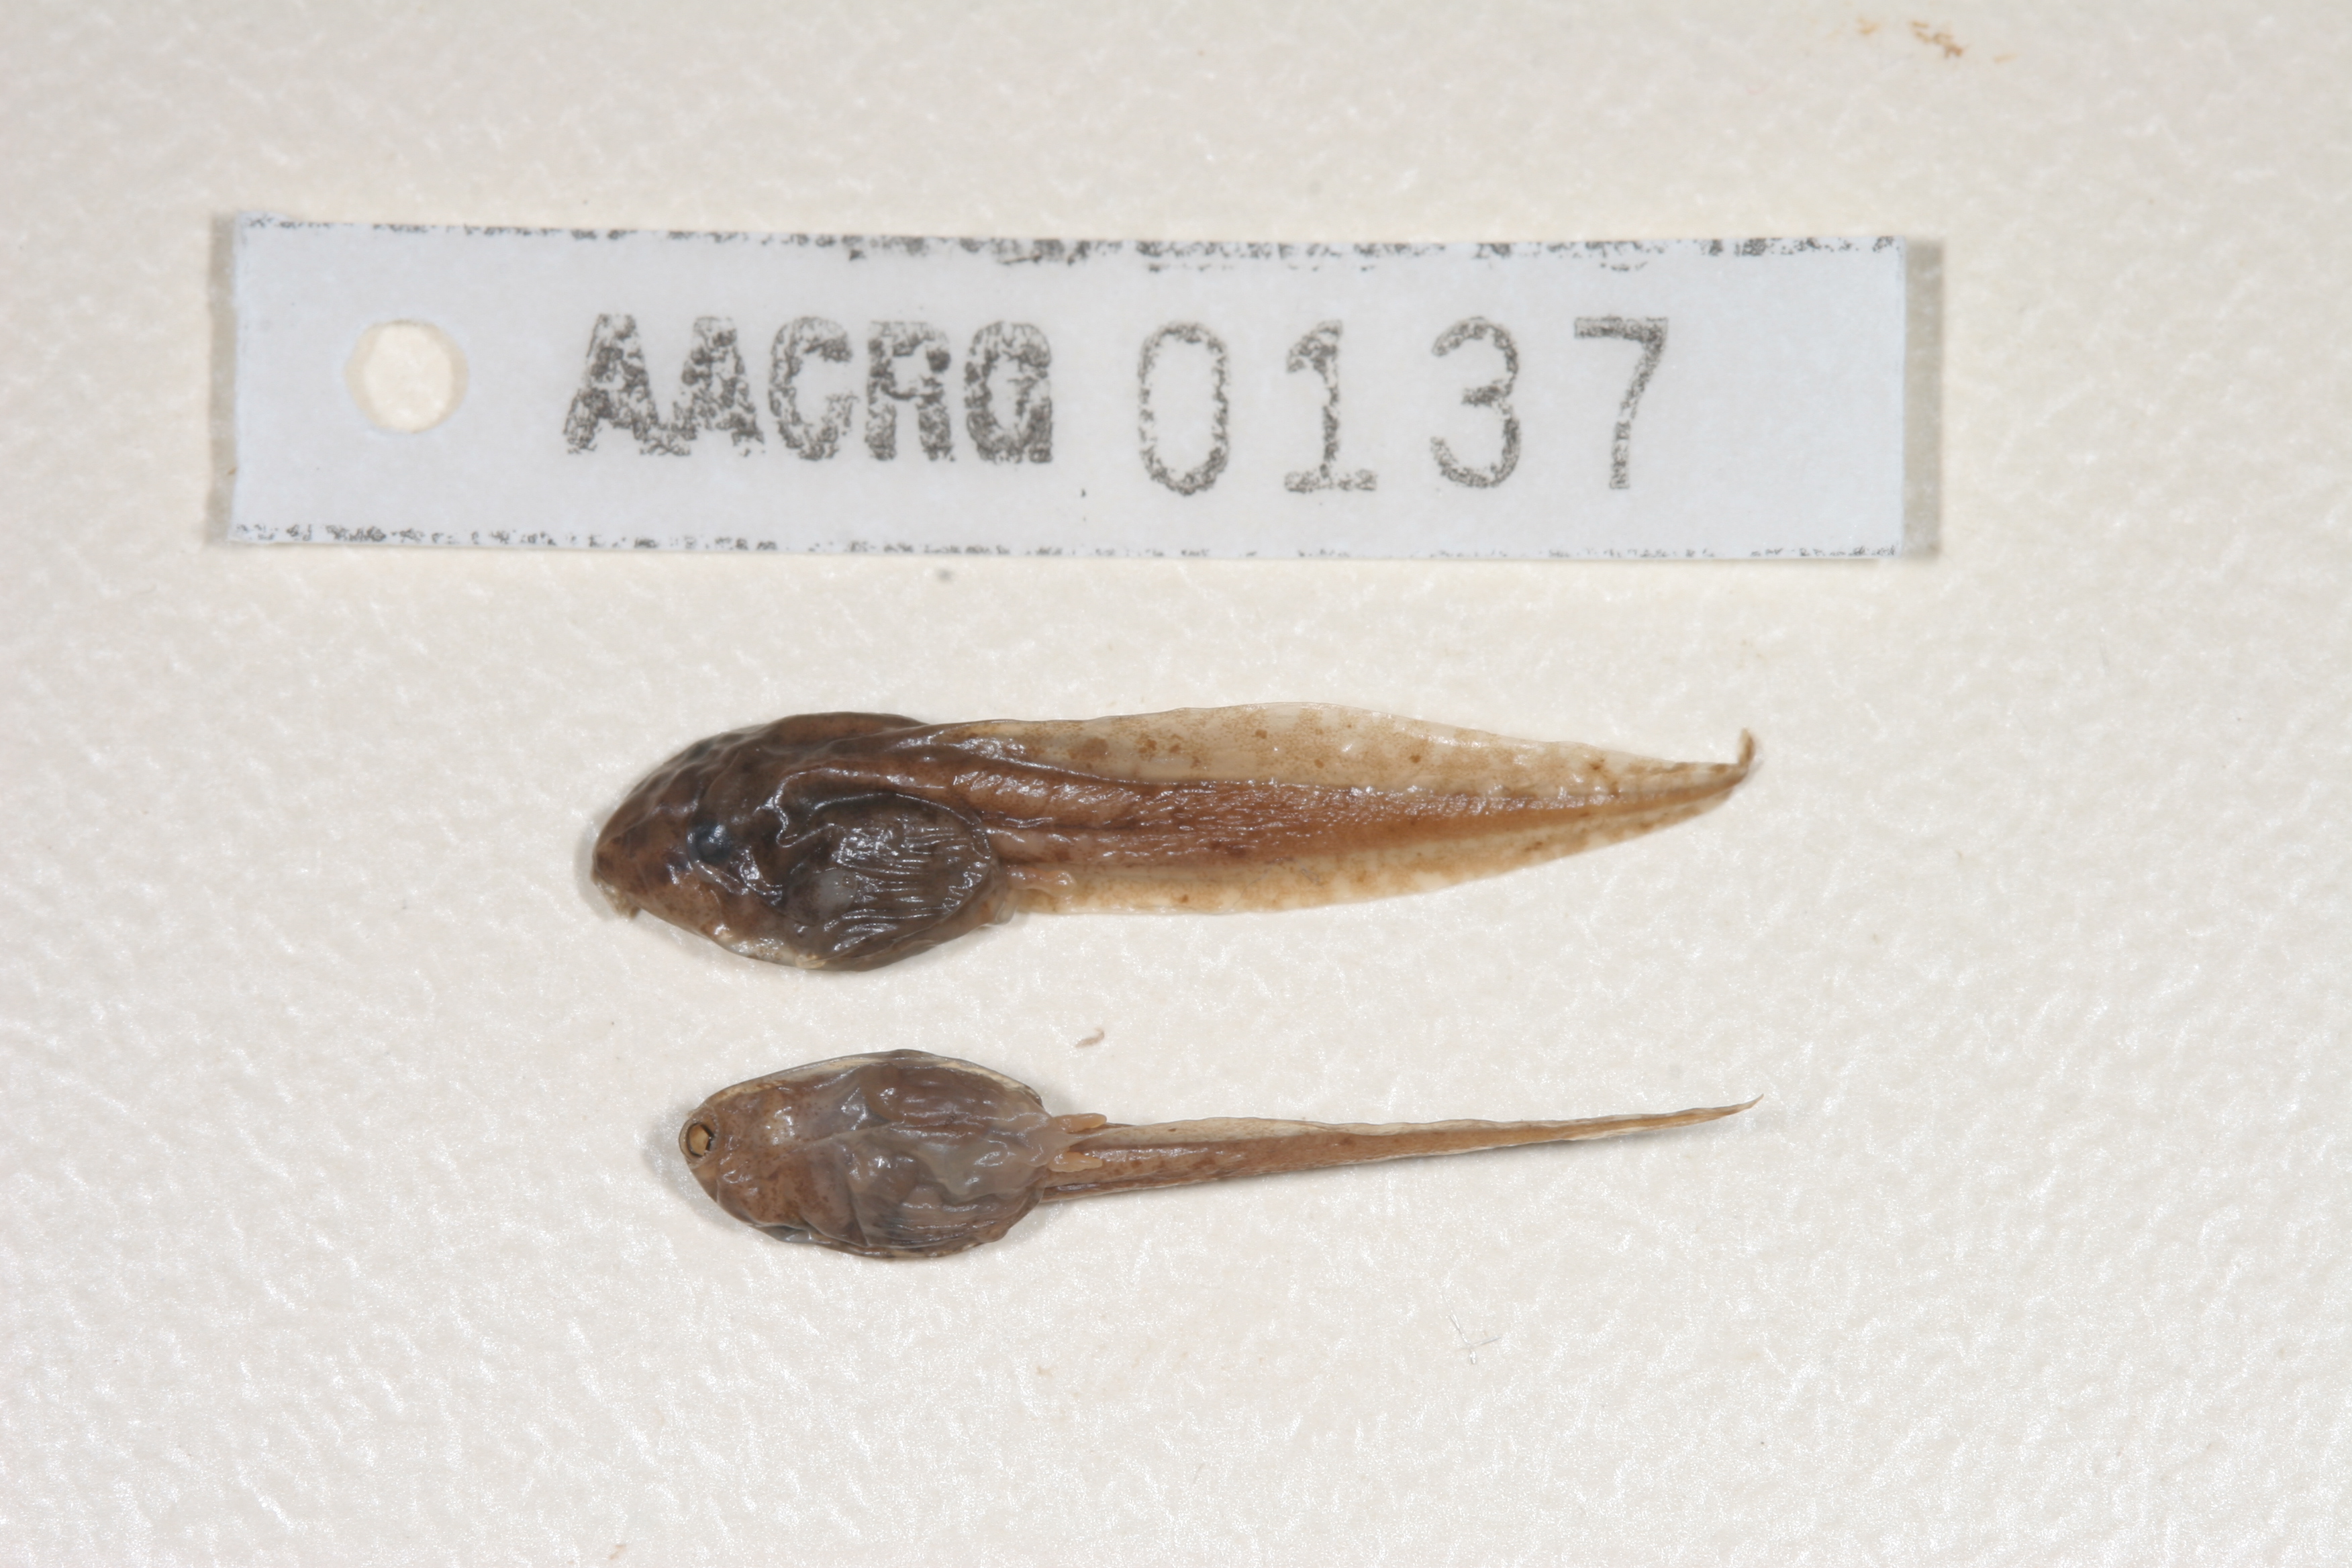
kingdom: Animalia
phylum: Chordata
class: Amphibia
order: Anura
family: Hyperoliidae
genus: Hyperolius
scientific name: Hyperolius semidiscus
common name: Yellow-striped reed frog
